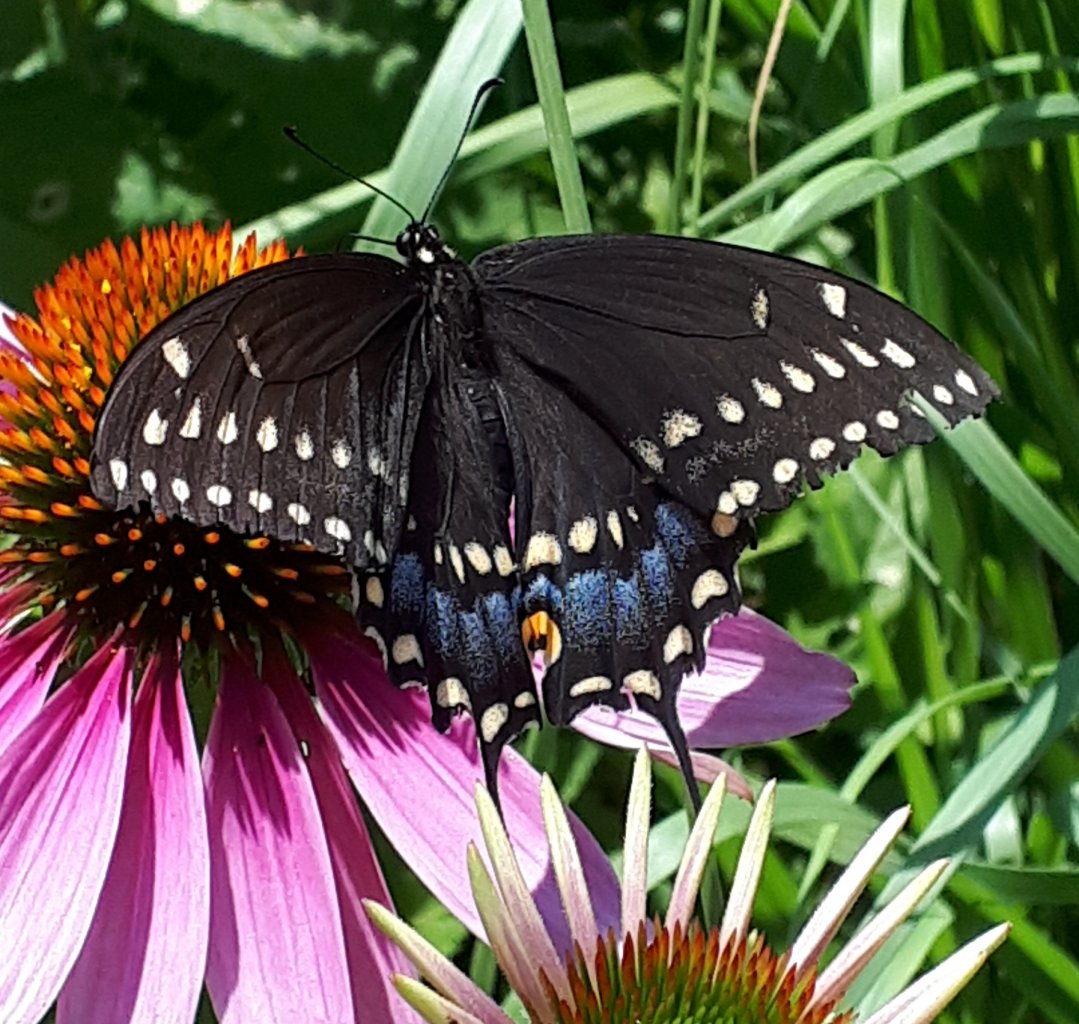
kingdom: Animalia
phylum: Arthropoda
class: Insecta
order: Lepidoptera
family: Papilionidae
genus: Papilio
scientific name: Papilio polyxenes
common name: Black Swallowtail
